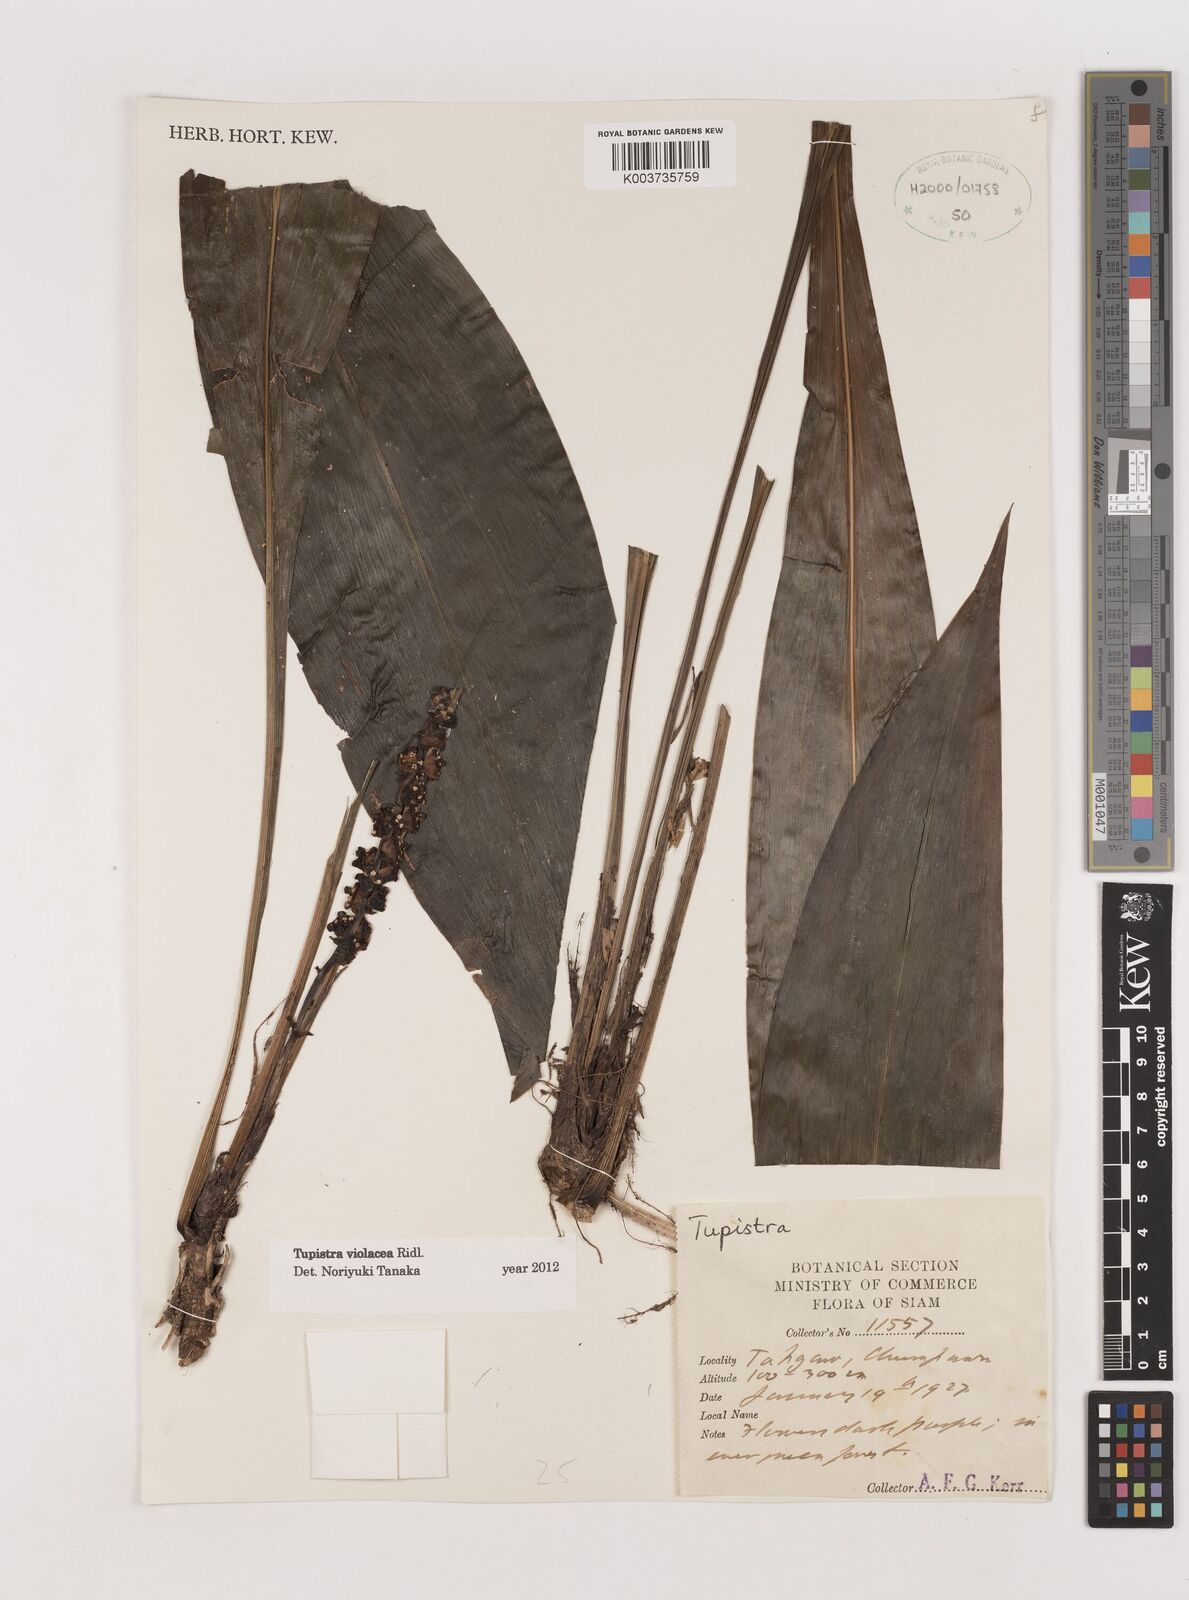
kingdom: Plantae
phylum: Tracheophyta
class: Liliopsida
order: Asparagales
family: Asparagaceae
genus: Tupistra
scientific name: Tupistra violacea
